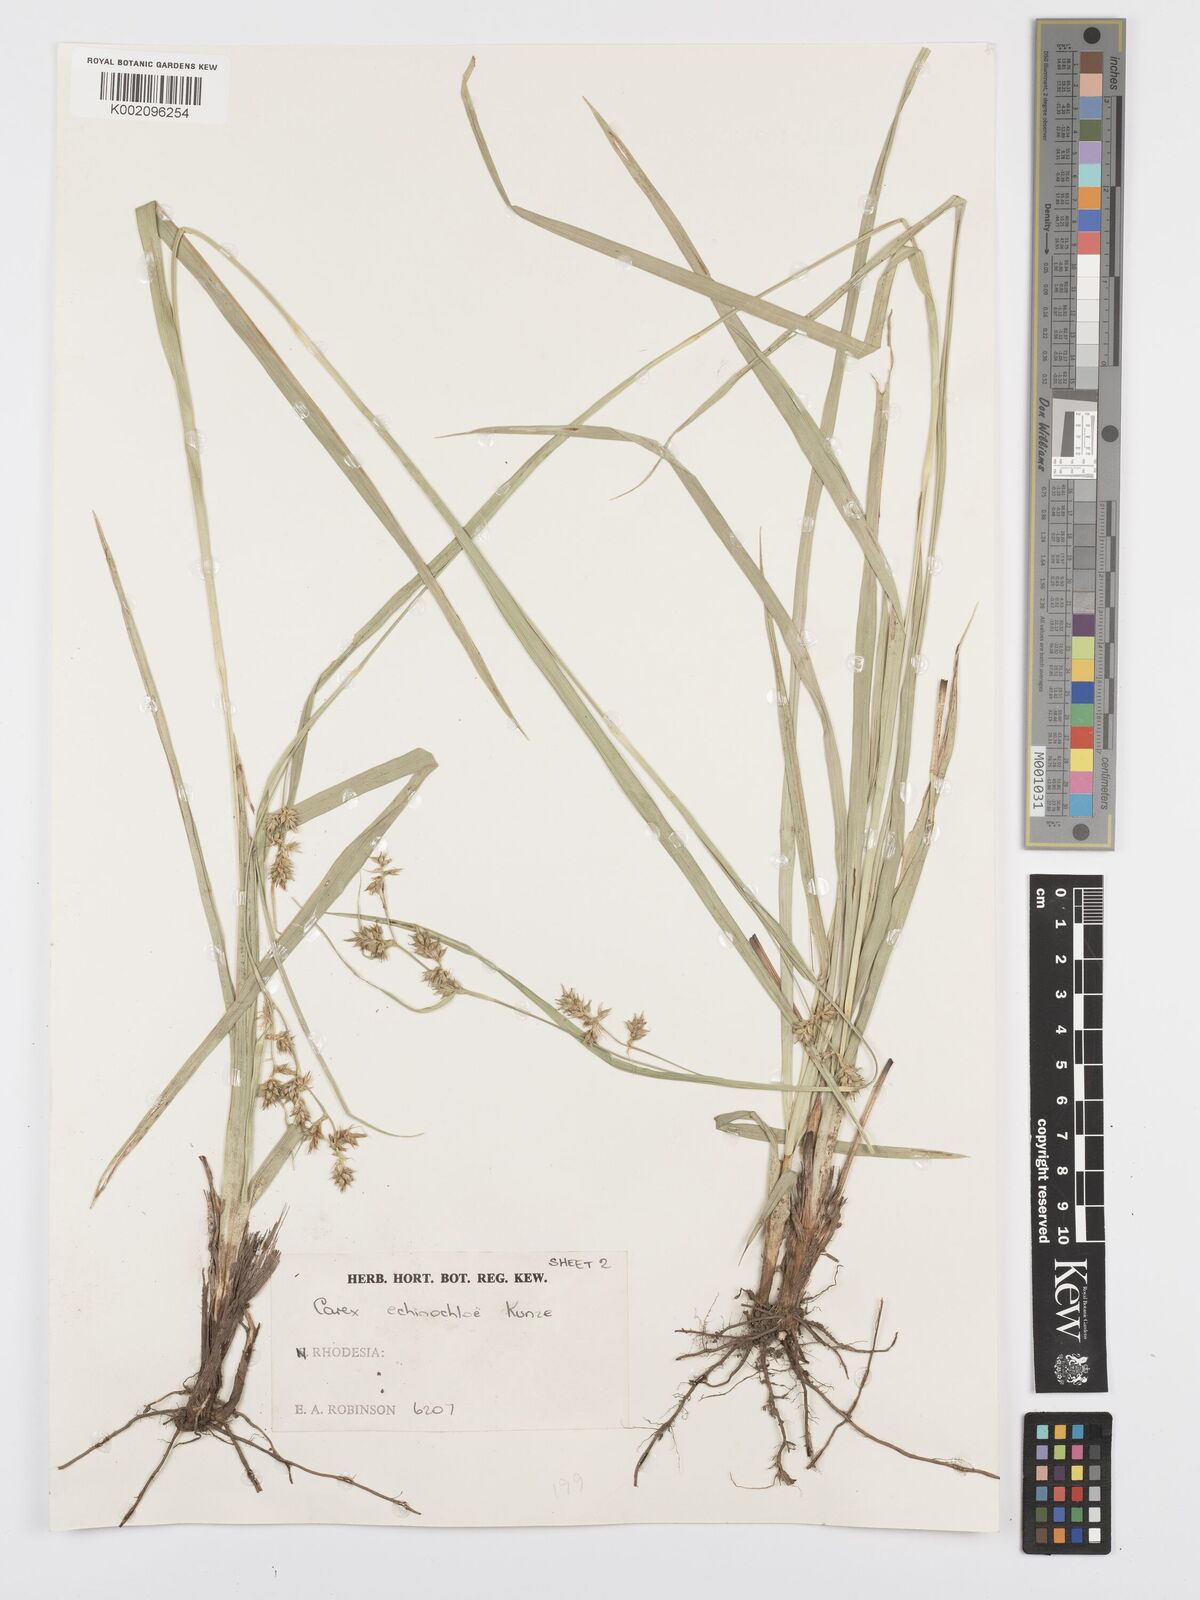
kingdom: Plantae
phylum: Tracheophyta
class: Liliopsida
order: Poales
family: Cyperaceae
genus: Carex
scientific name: Carex echinochloe
